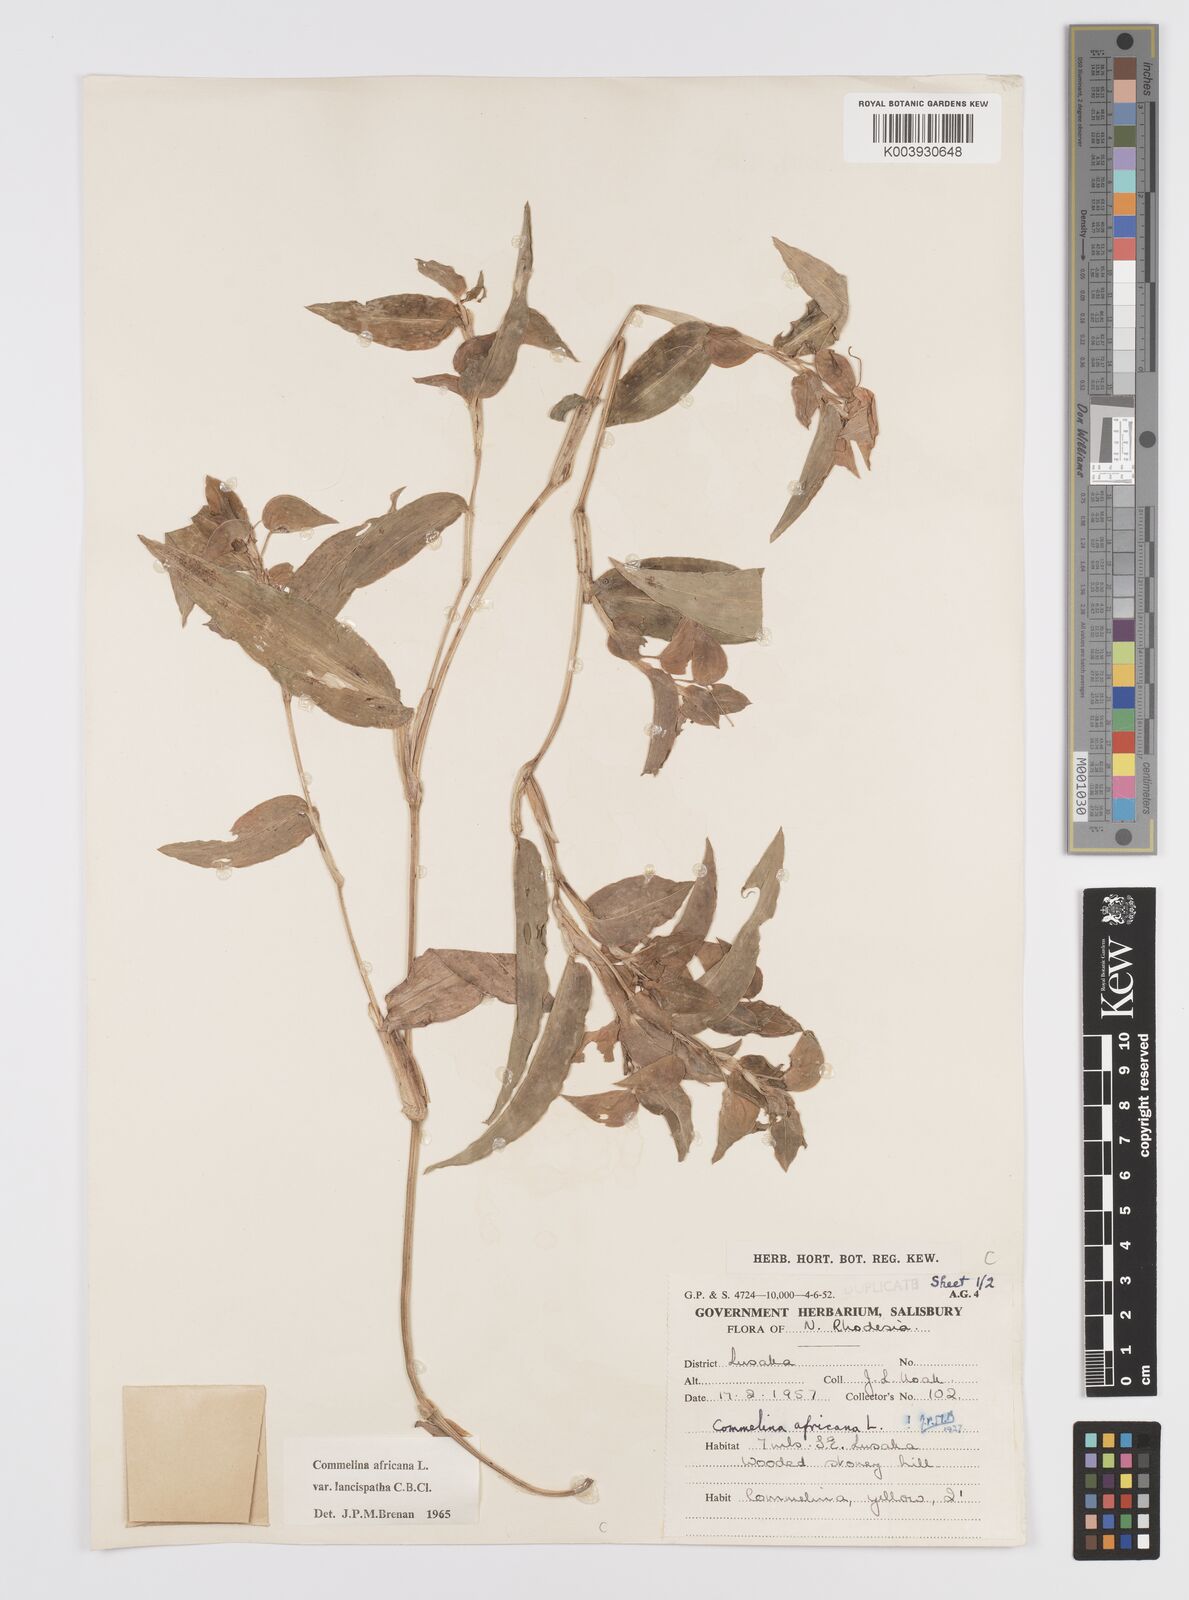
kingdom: Plantae
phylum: Tracheophyta
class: Liliopsida
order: Commelinales
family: Commelinaceae
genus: Commelina
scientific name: Commelina africana
